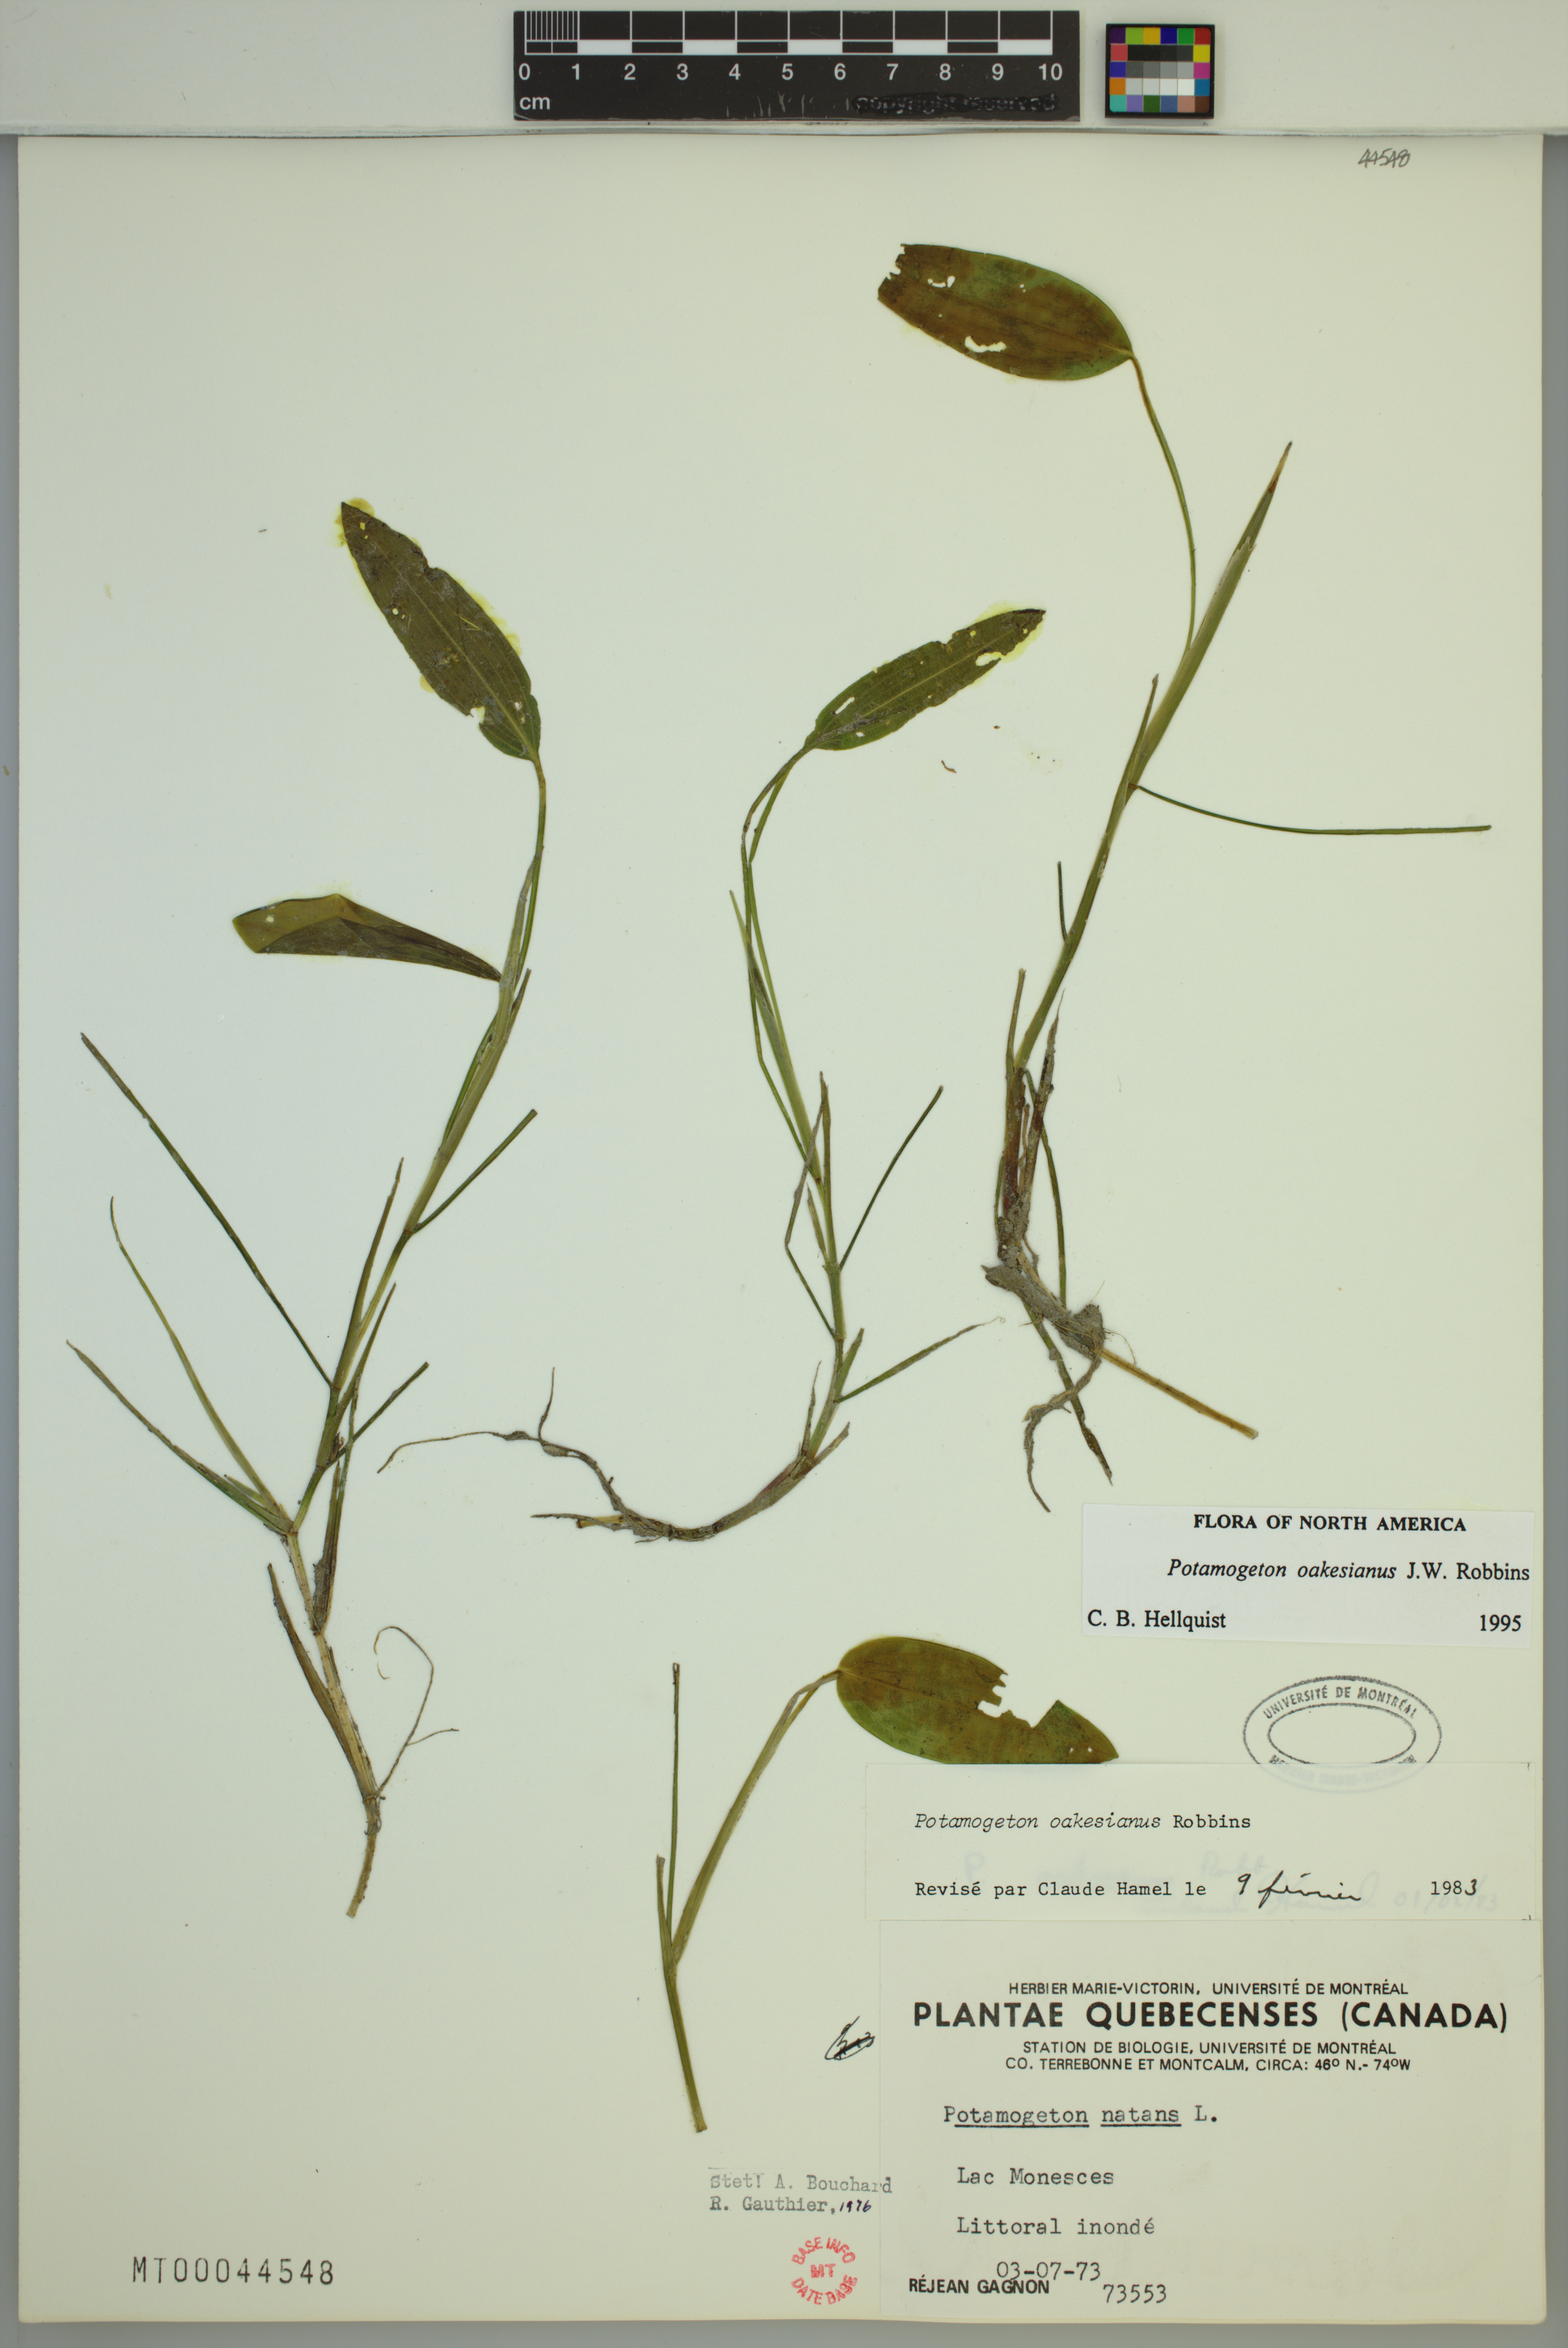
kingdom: Plantae
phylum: Tracheophyta
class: Liliopsida
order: Alismatales
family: Potamogetonaceae
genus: Potamogeton
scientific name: Potamogeton oakesianus
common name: Oakes' pondweed
